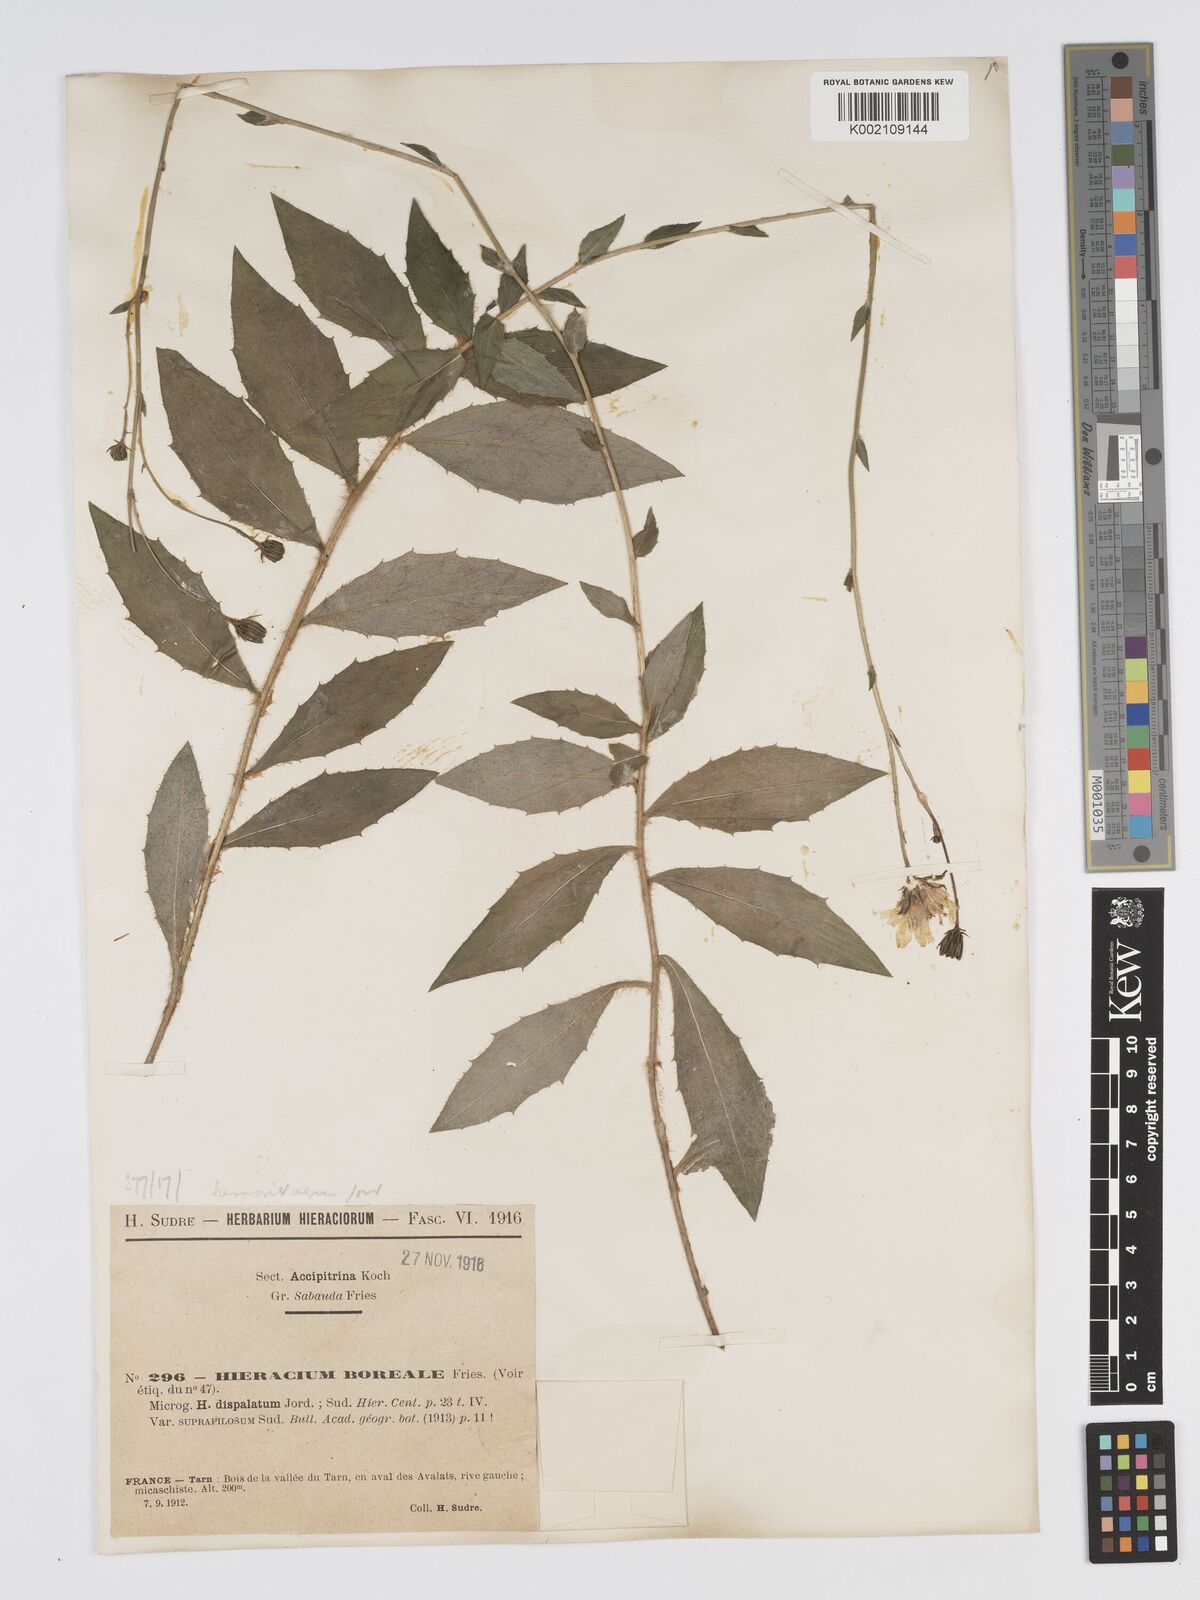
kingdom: Plantae
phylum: Tracheophyta
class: Magnoliopsida
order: Asterales
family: Asteraceae
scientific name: Asteraceae
